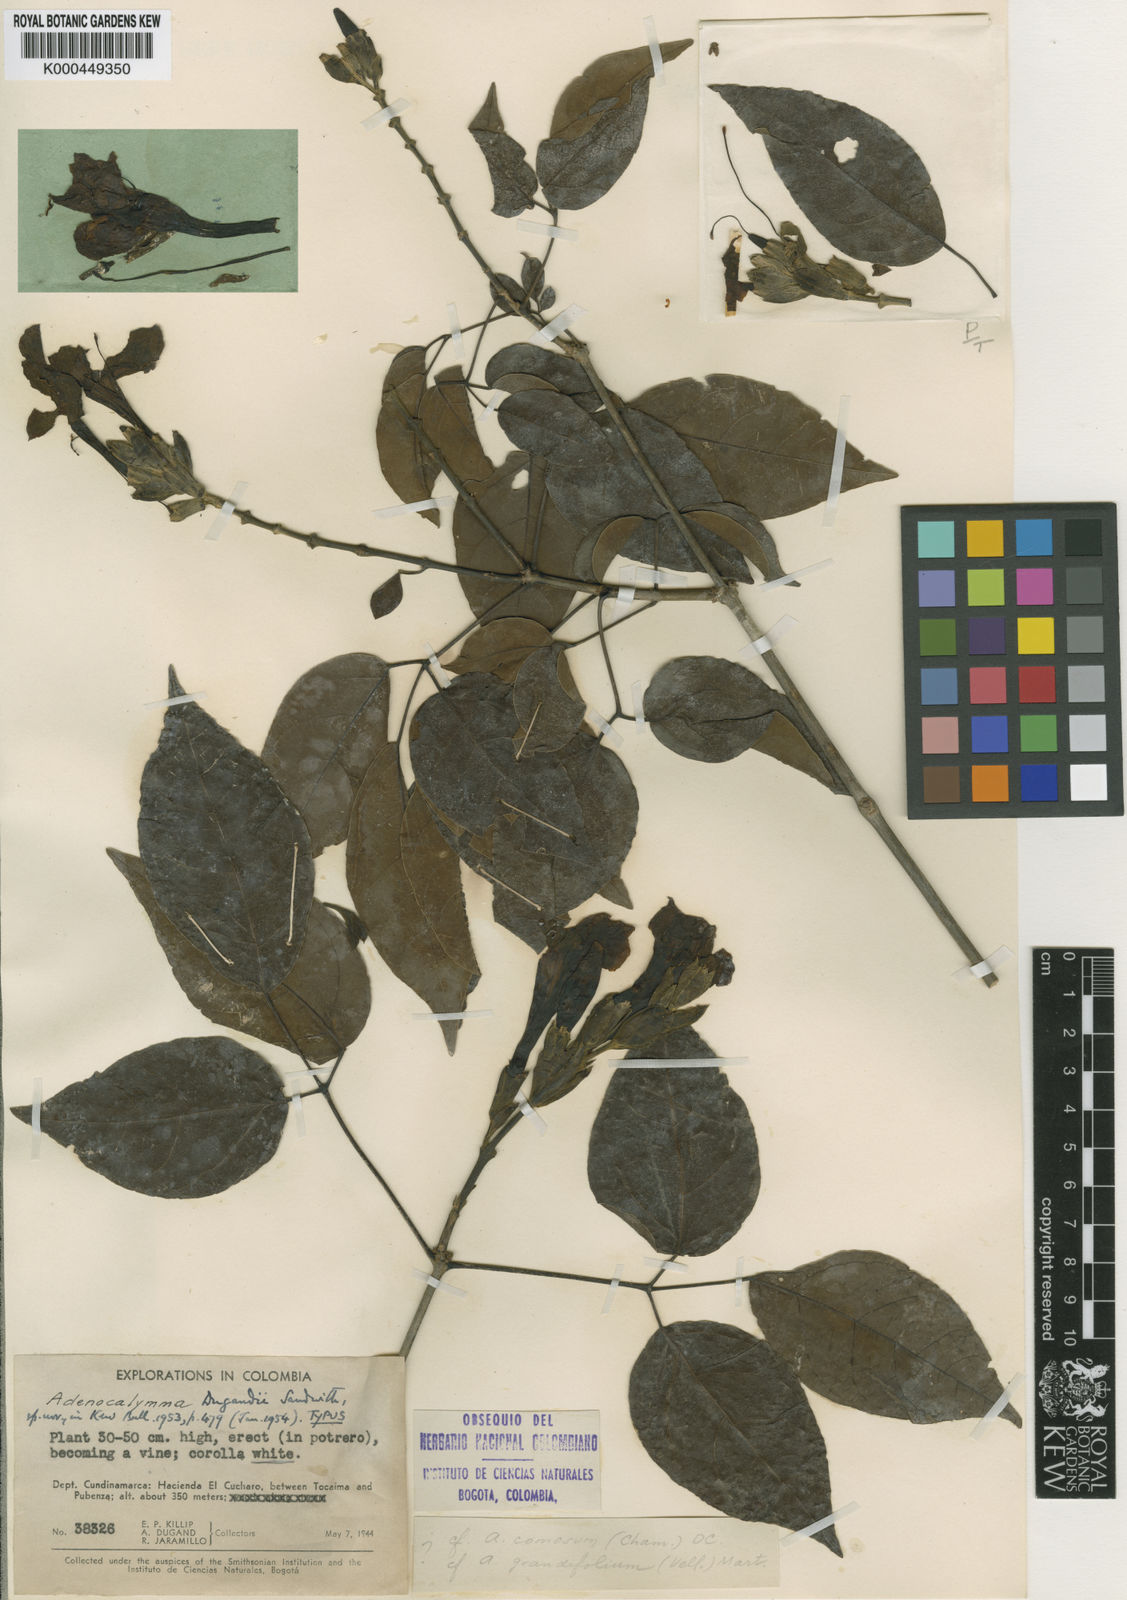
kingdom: Plantae
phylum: Tracheophyta
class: Magnoliopsida
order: Lamiales
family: Bignoniaceae
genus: Adenocalymma
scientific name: Adenocalymma dugandii
